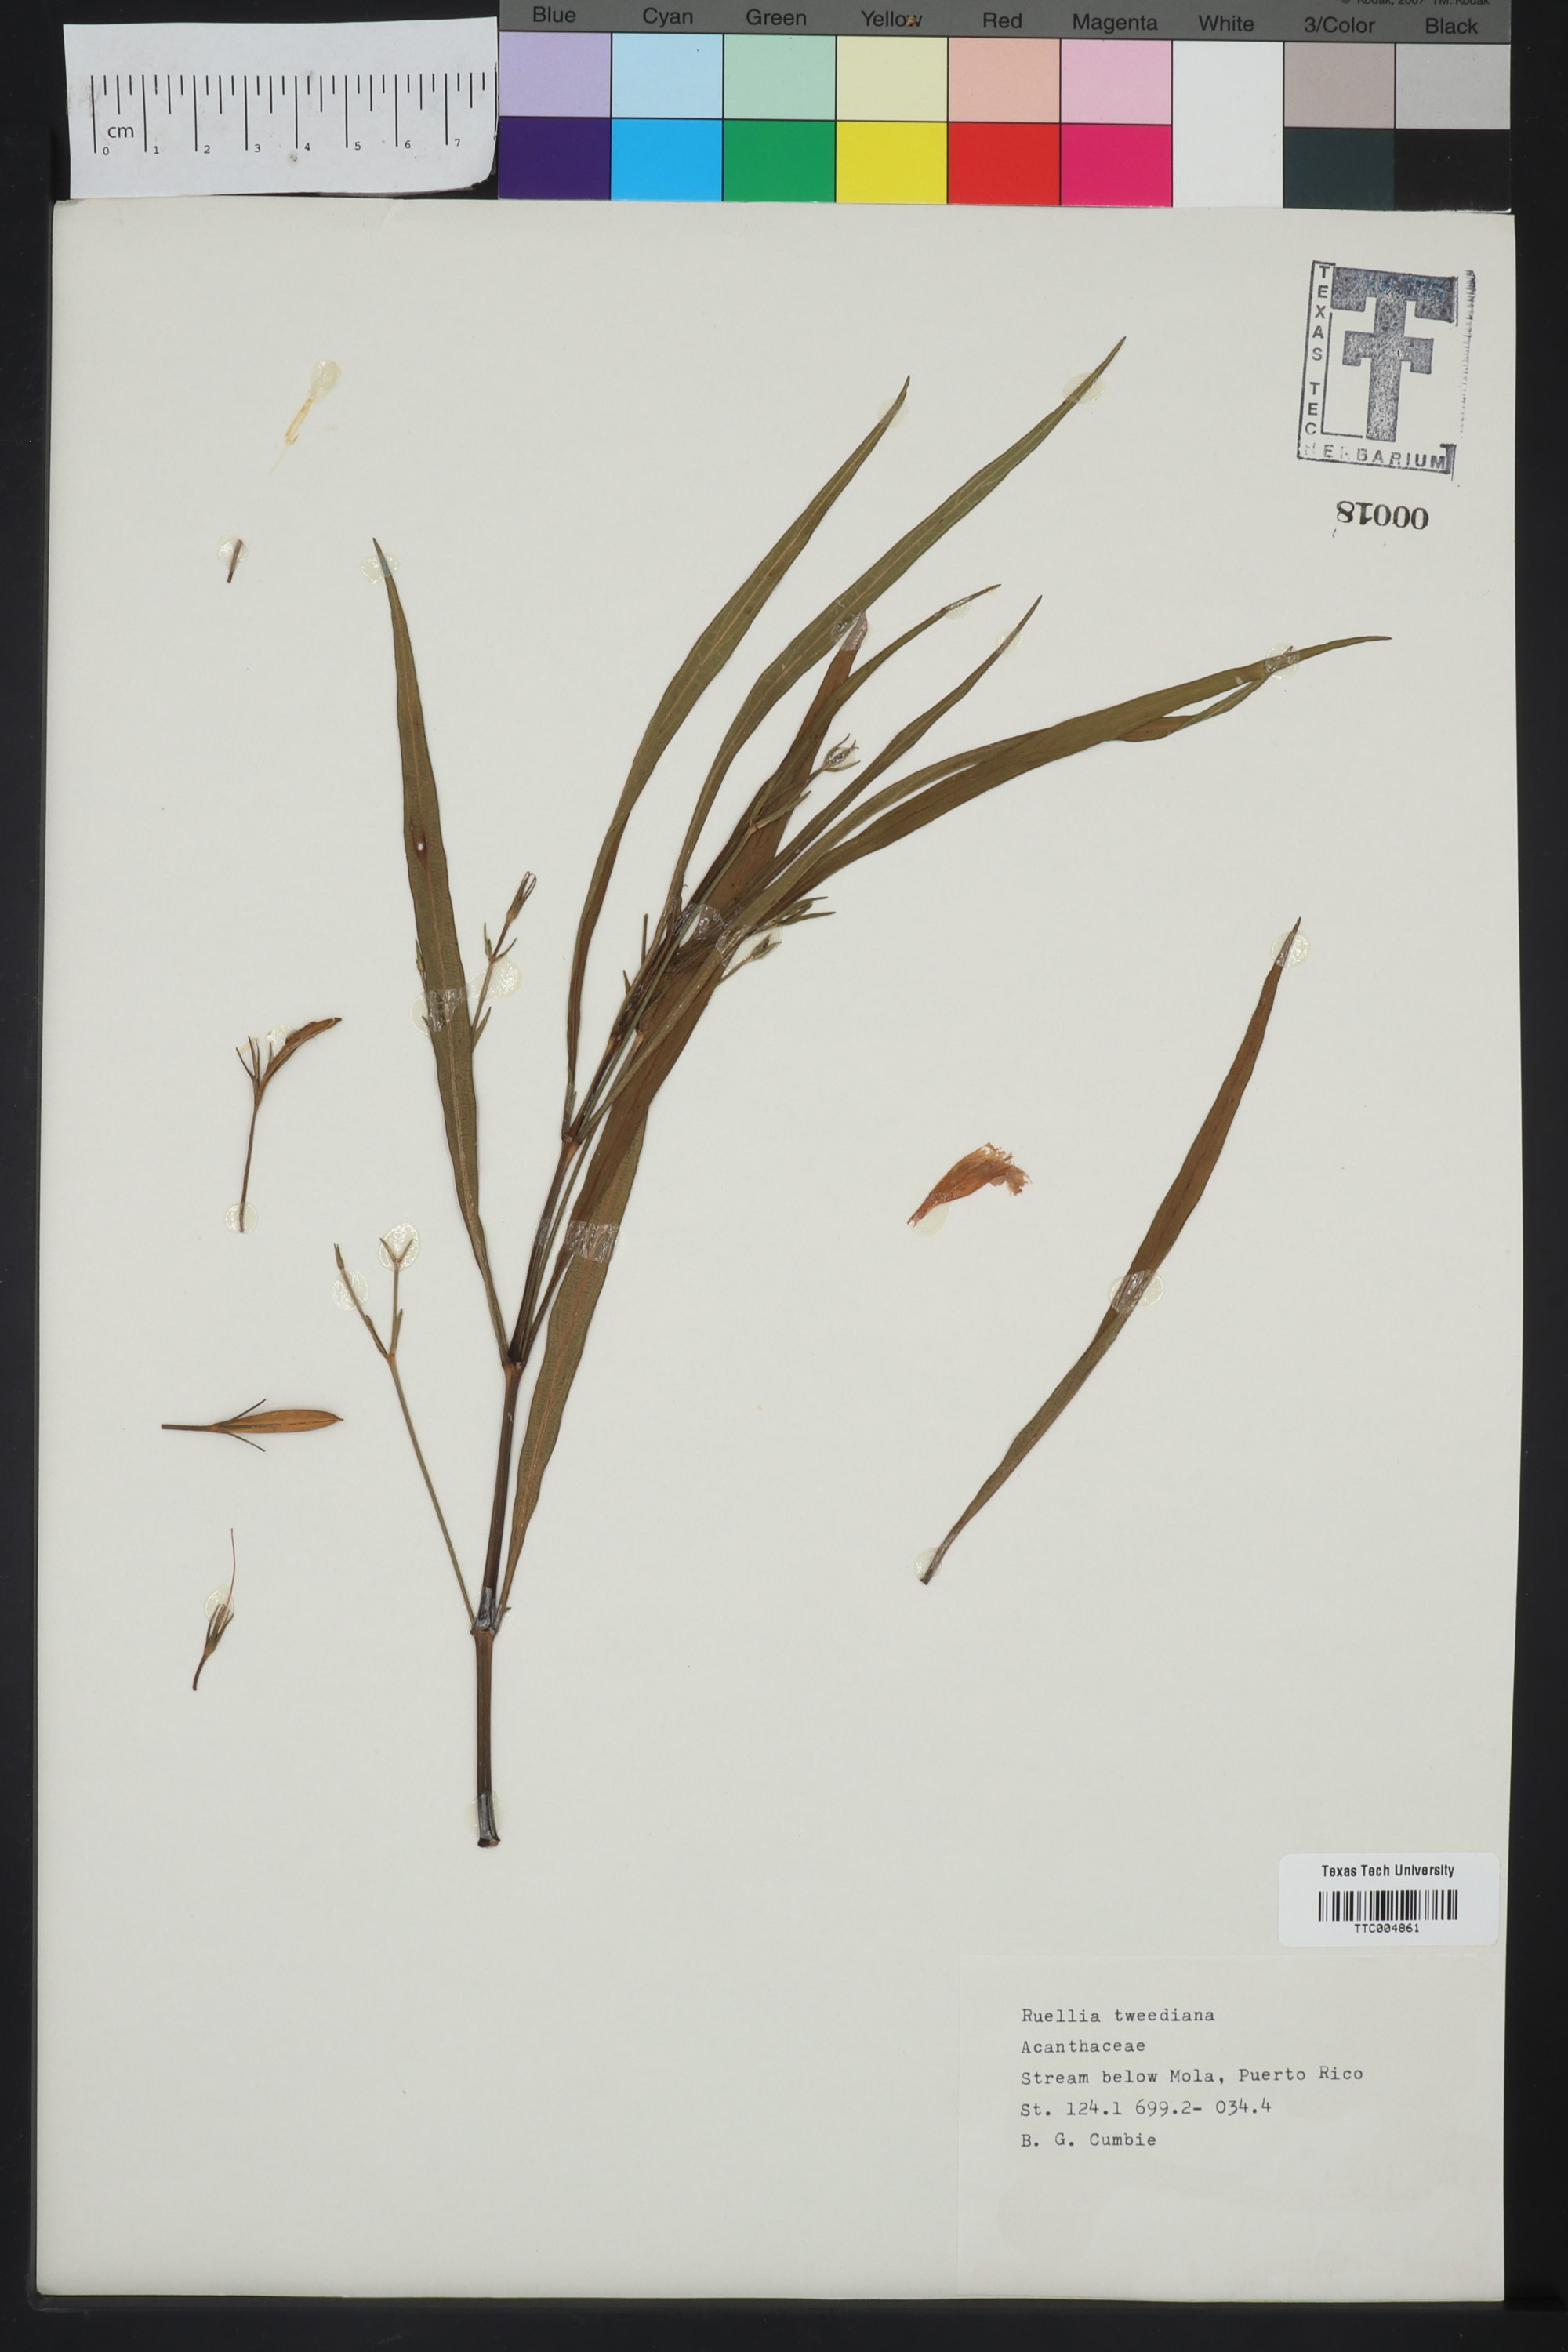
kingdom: Plantae
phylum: Tracheophyta
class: Magnoliopsida
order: Lamiales
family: Acanthaceae
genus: Ruellia
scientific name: Ruellia simplex
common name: Softseed wild petunia
